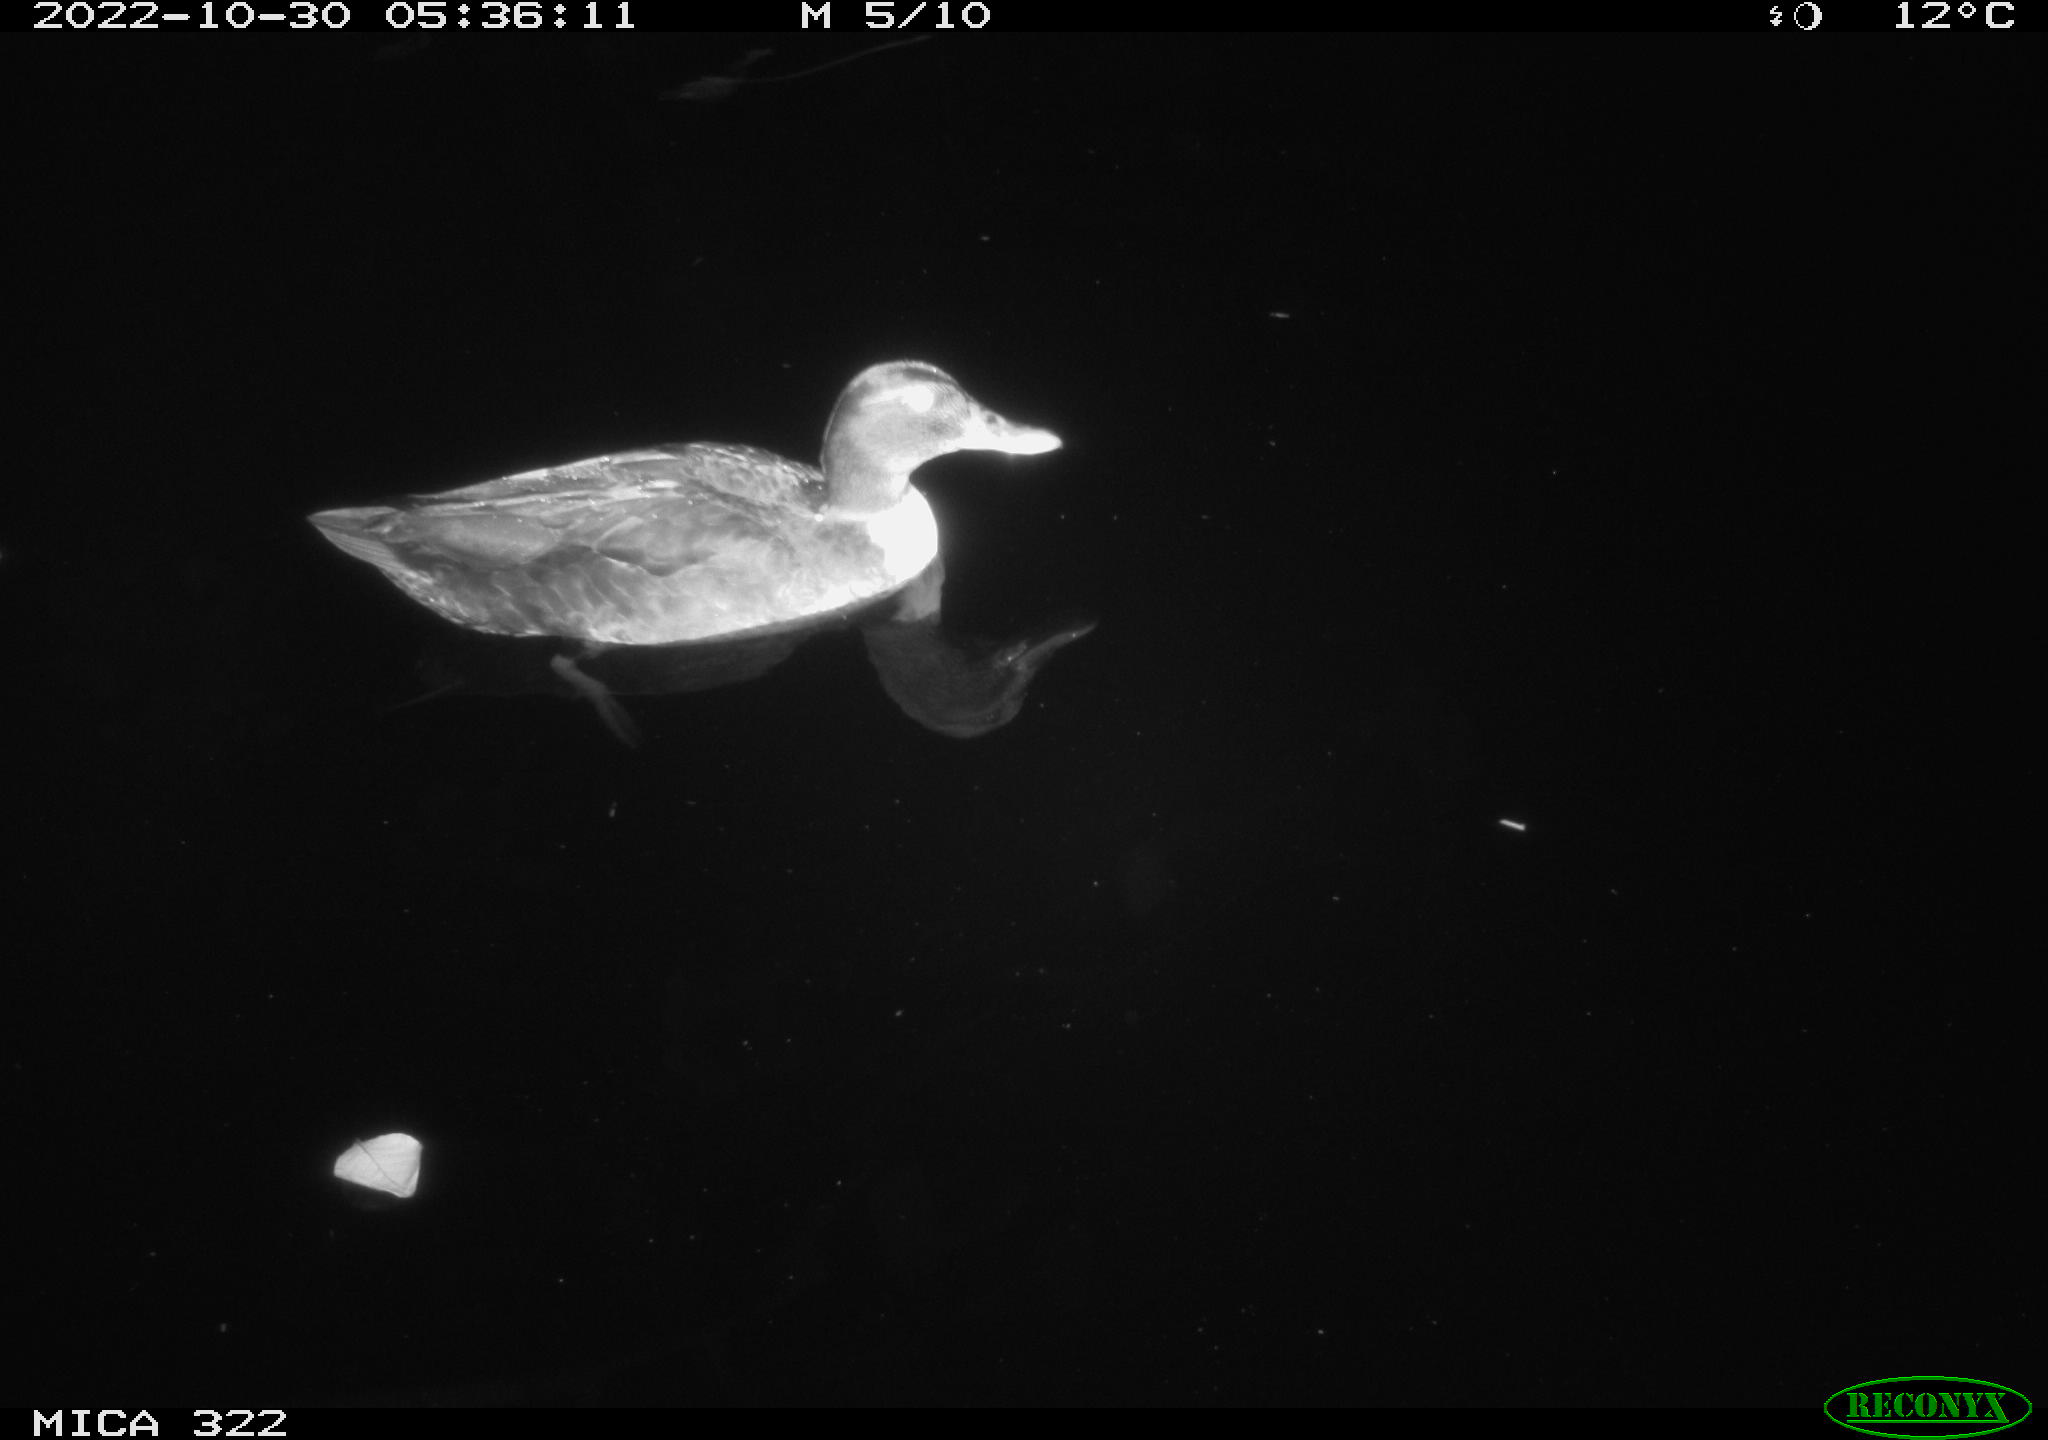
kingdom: Animalia
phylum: Chordata
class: Aves
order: Anseriformes
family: Anatidae
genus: Anas
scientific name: Anas
